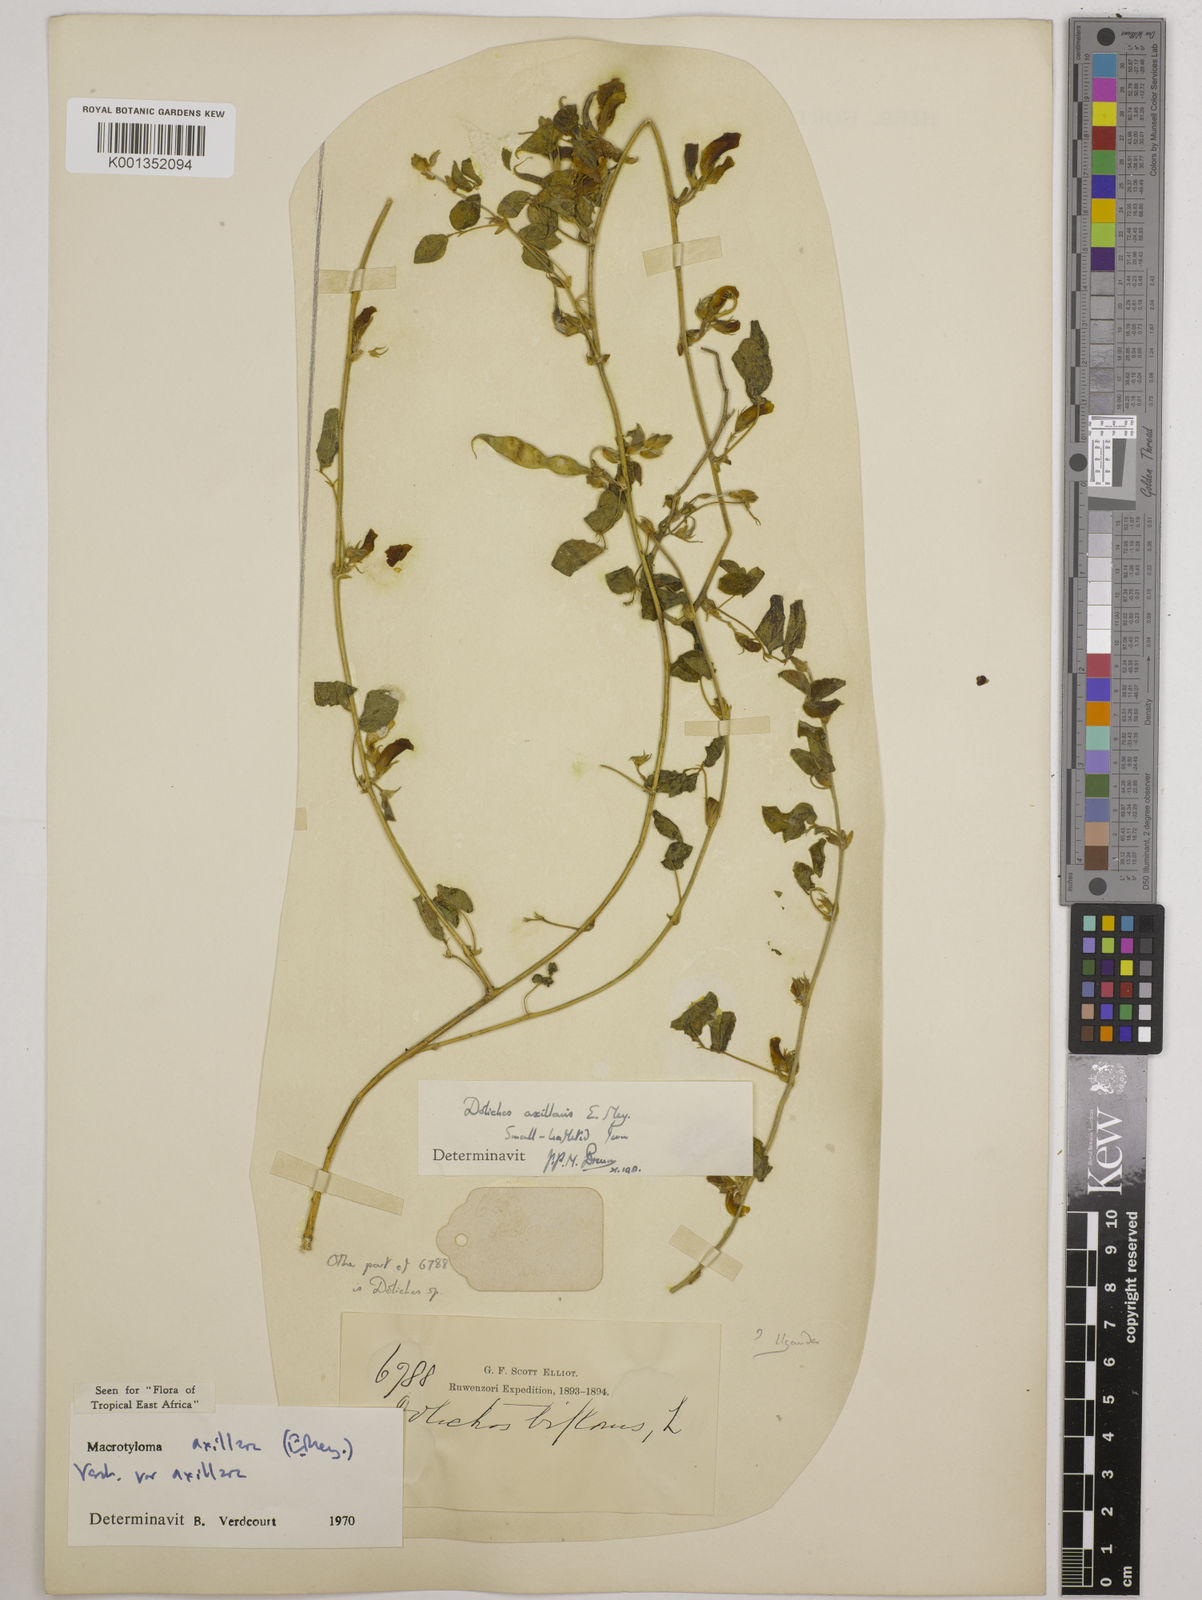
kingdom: Plantae
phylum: Tracheophyta
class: Magnoliopsida
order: Fabales
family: Fabaceae
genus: Macrotyloma
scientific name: Macrotyloma axillare
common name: Perennial horsegram
